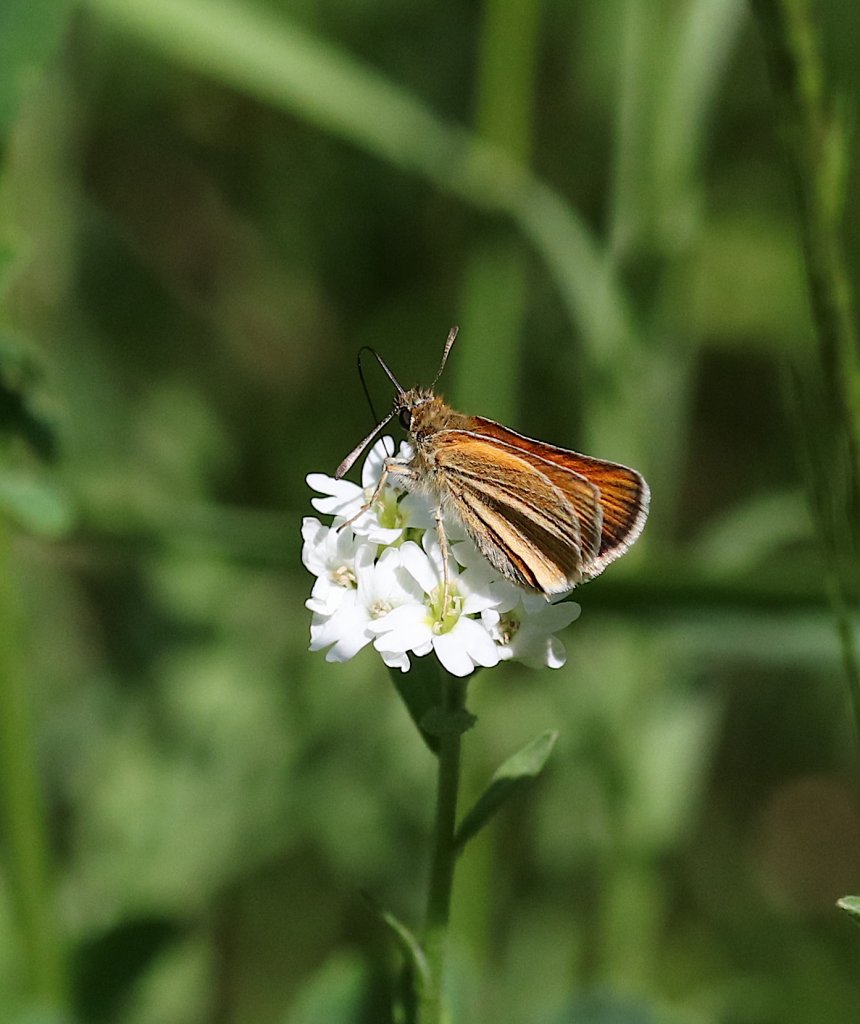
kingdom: Animalia
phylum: Arthropoda
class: Insecta
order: Lepidoptera
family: Hesperiidae
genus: Thymelicus
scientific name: Thymelicus lineola
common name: European Skipper
